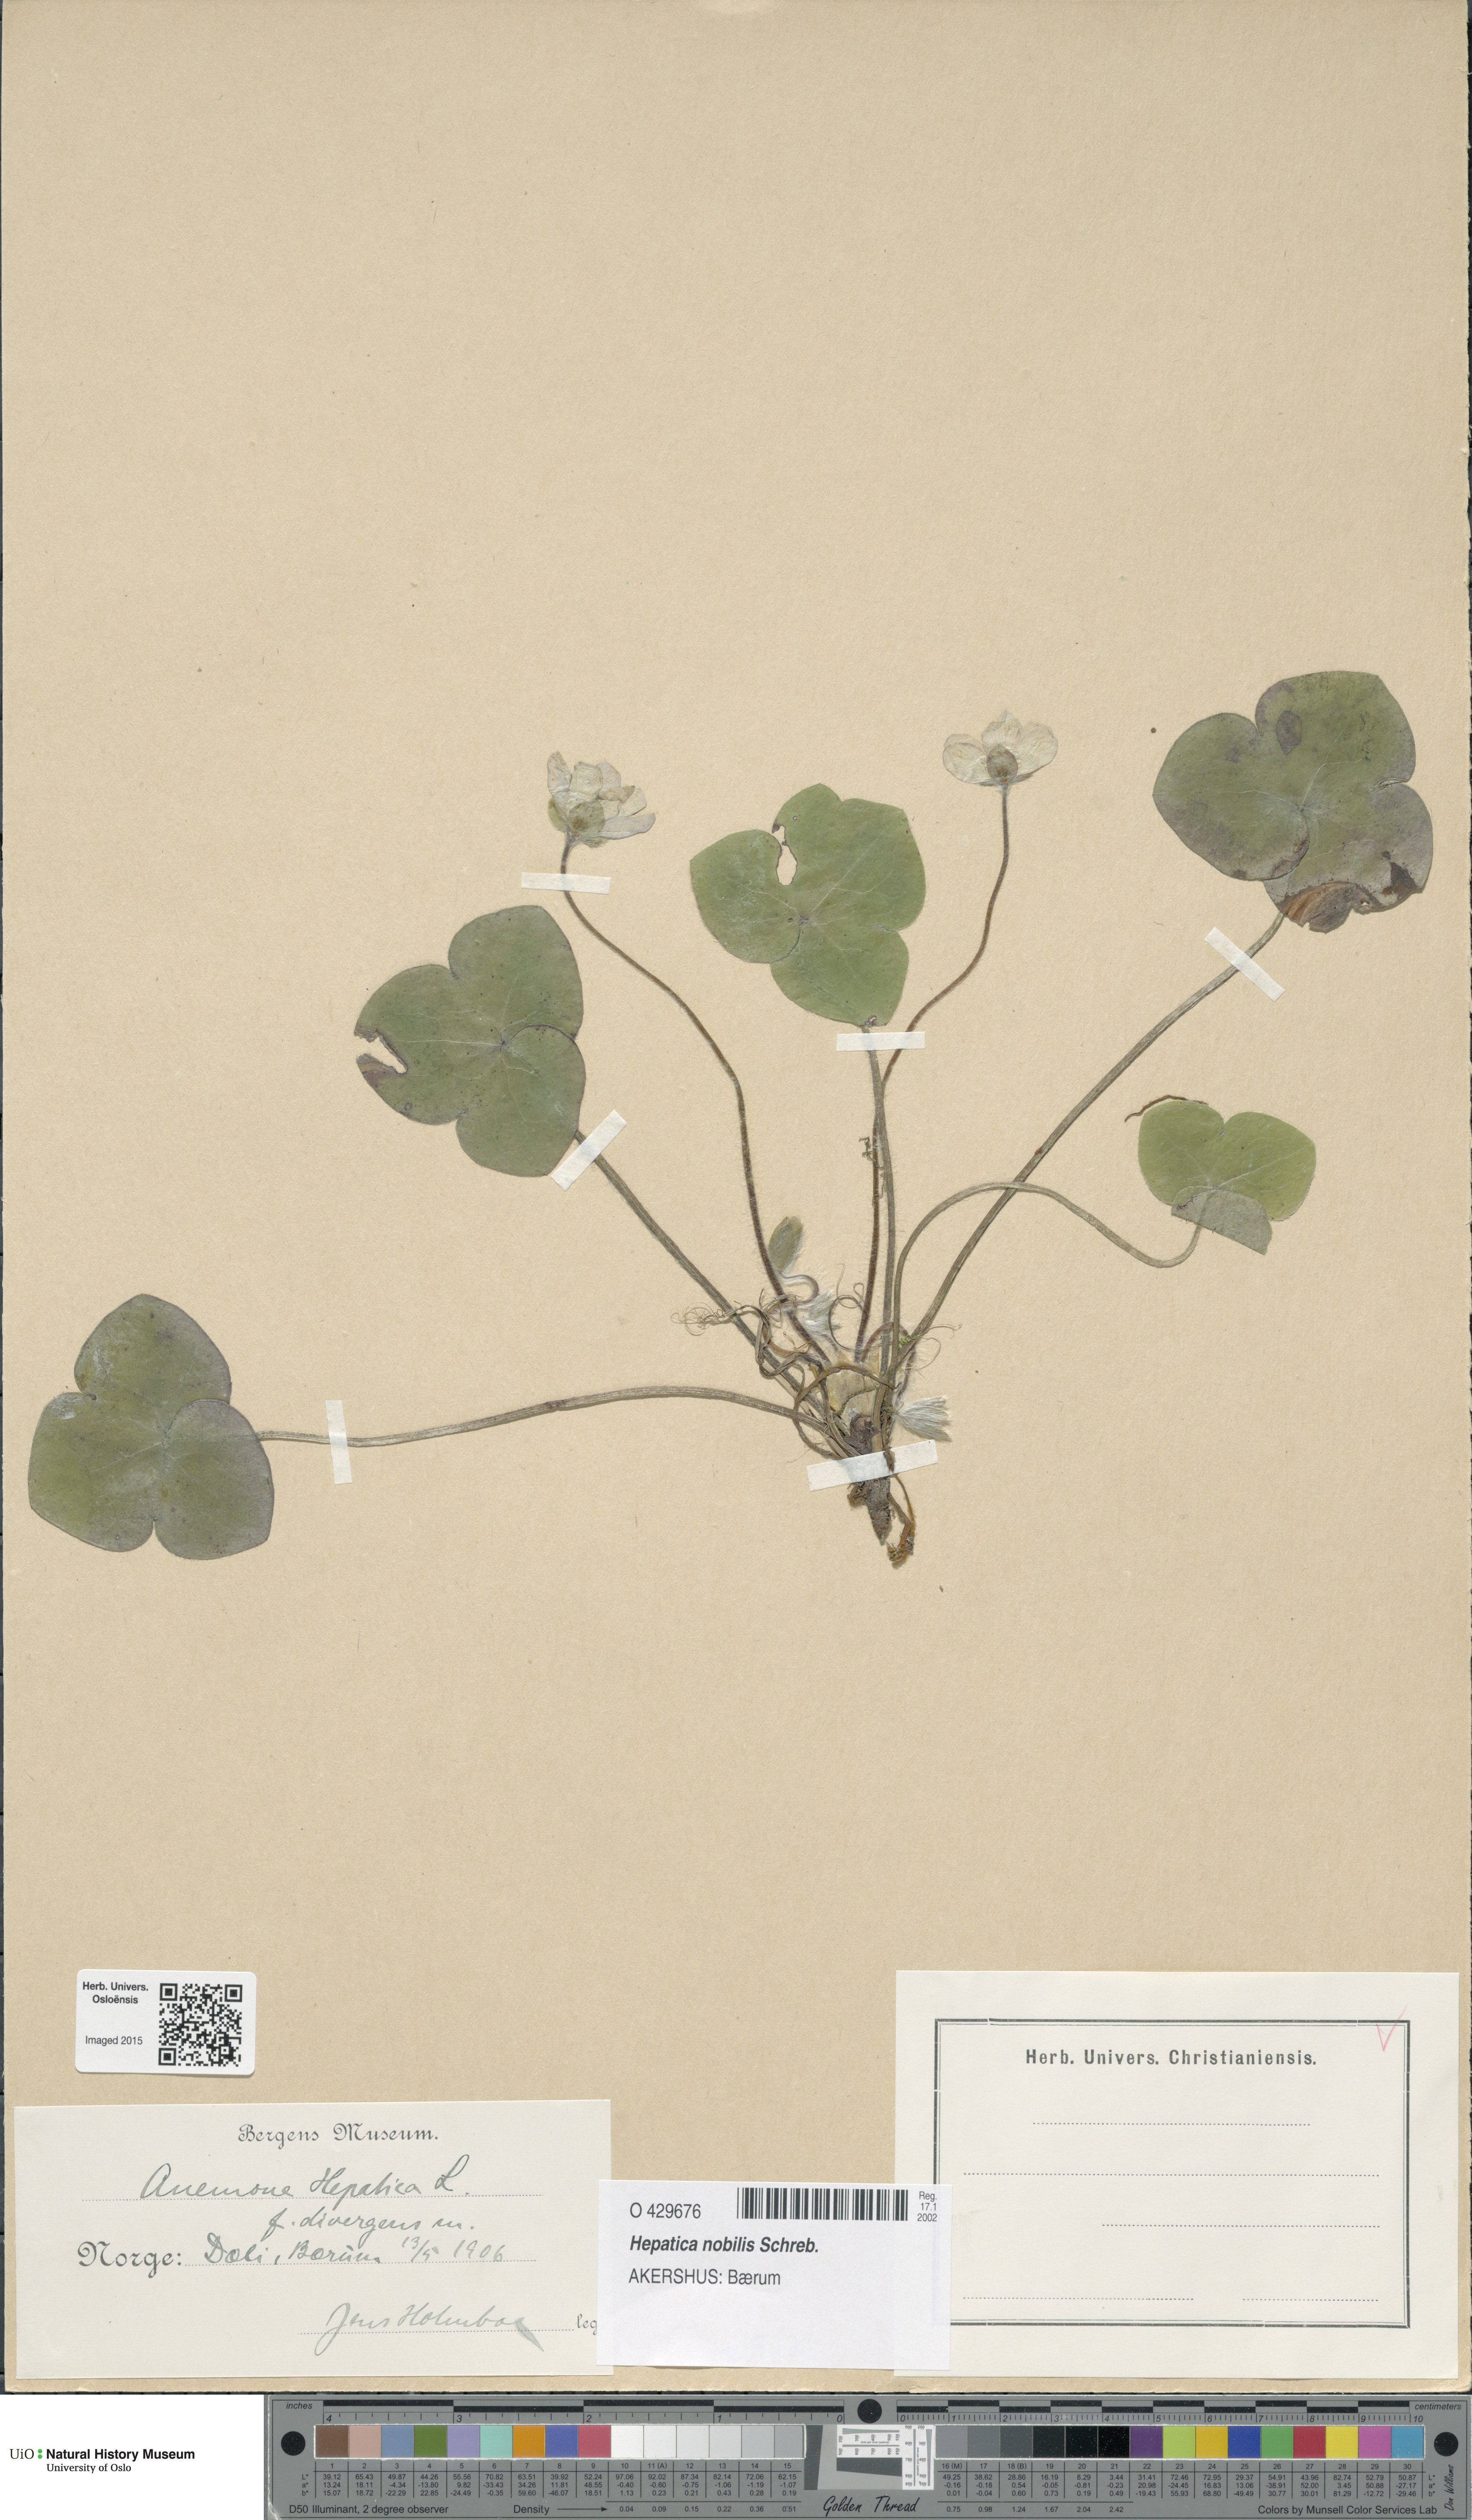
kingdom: Plantae
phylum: Tracheophyta
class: Magnoliopsida
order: Ranunculales
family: Ranunculaceae
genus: Hepatica
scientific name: Hepatica nobilis
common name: Liverleaf
